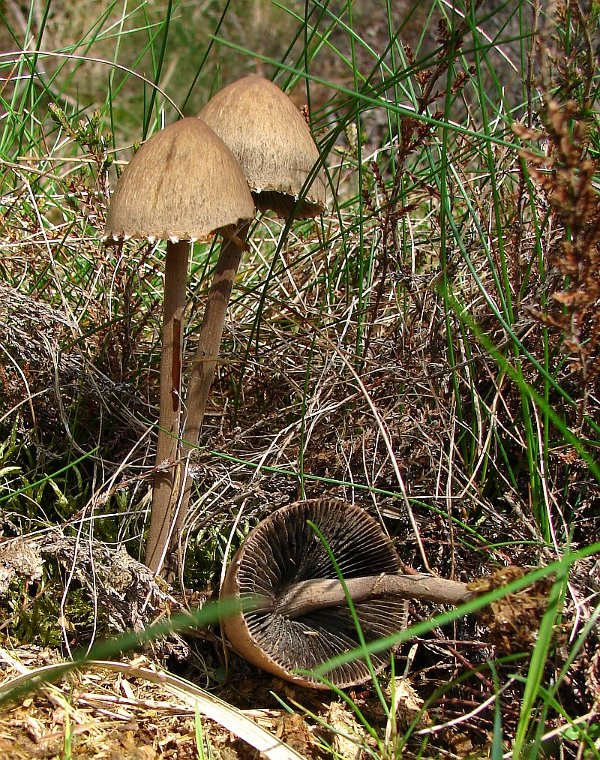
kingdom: Fungi
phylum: Basidiomycota
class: Agaricomycetes
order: Agaricales
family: Bolbitiaceae
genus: Panaeolus
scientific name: Panaeolus papilionaceus
